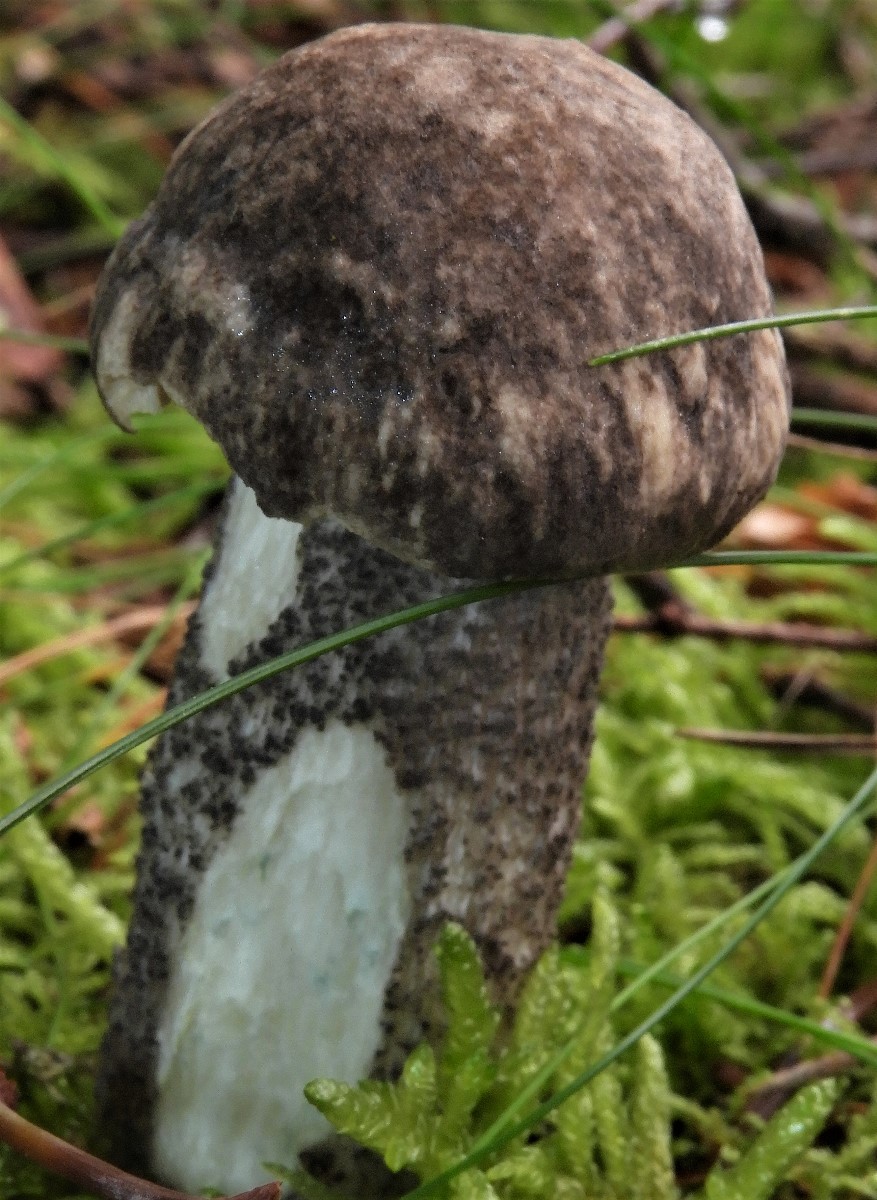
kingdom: Fungi
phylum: Basidiomycota
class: Agaricomycetes
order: Boletales
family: Boletaceae
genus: Leccinum
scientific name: Leccinum variicolor
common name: flammet skælrørhat
